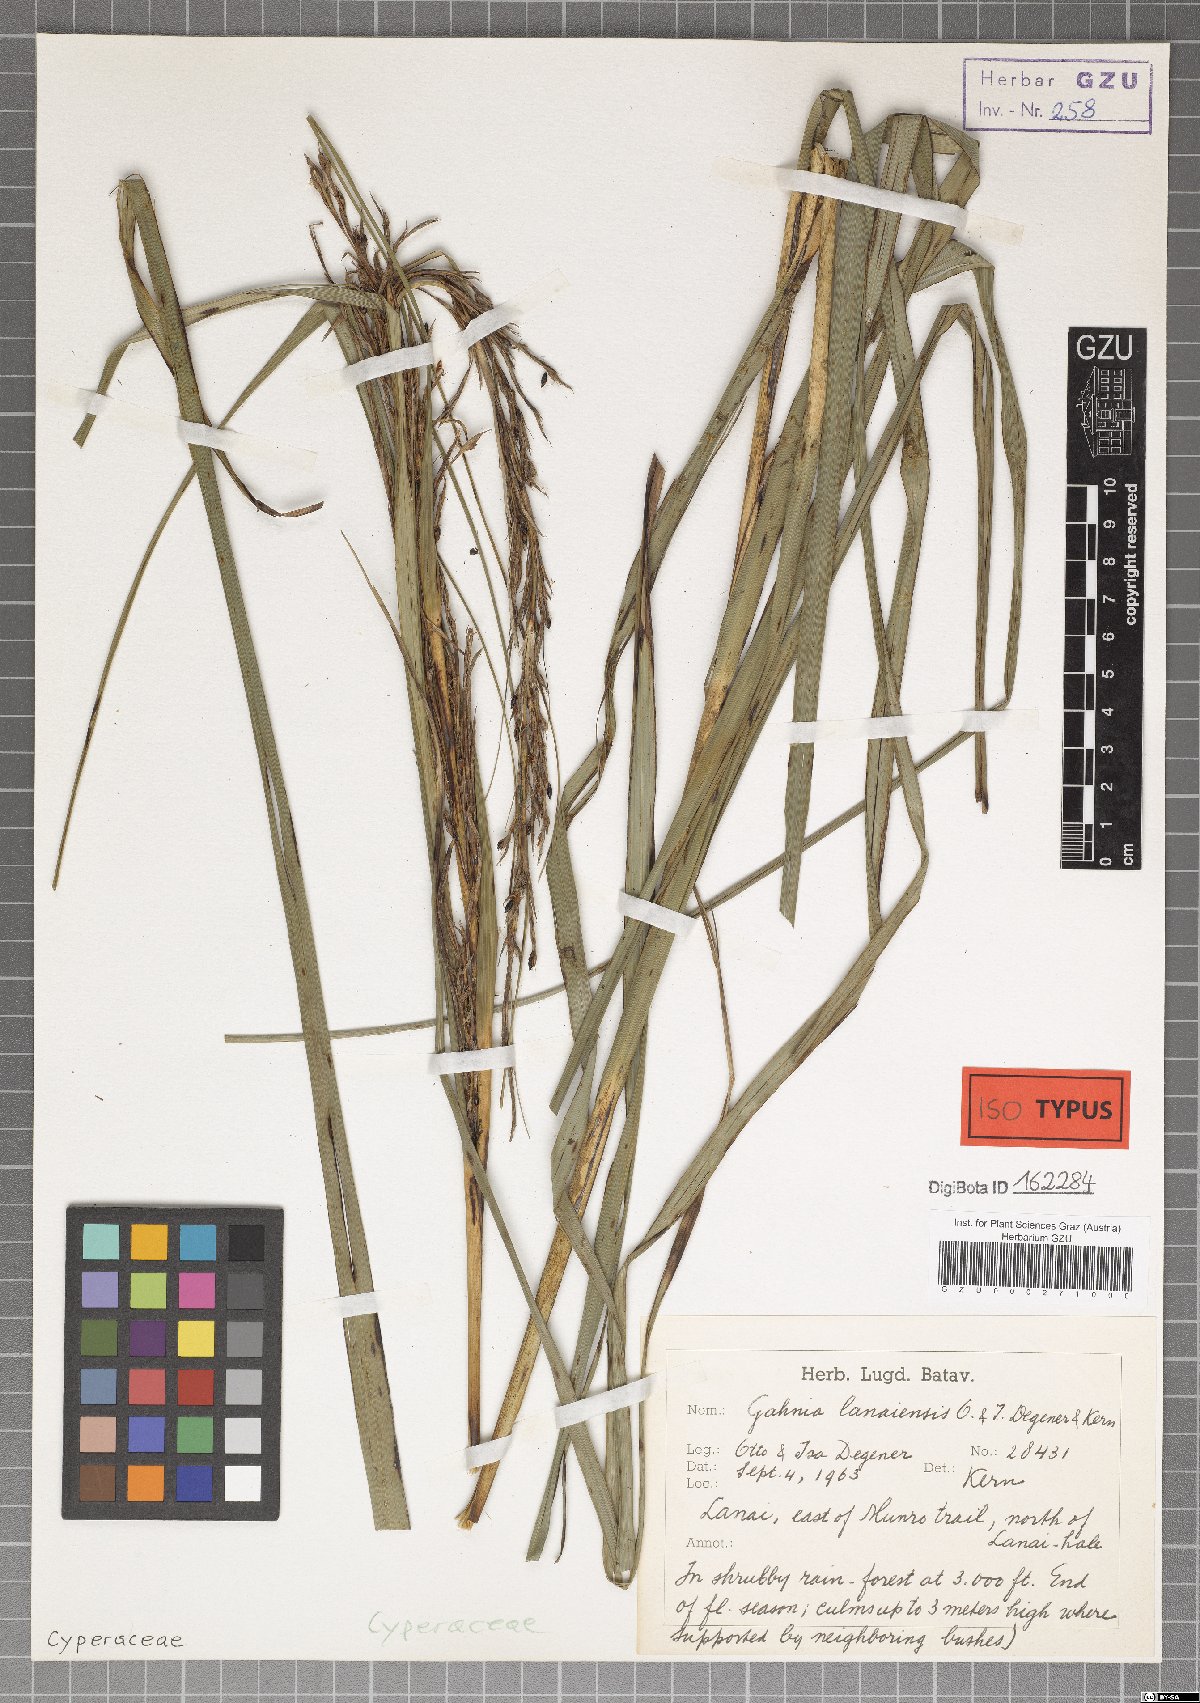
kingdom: Plantae
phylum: Tracheophyta
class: Liliopsida
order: Poales
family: Cyperaceae
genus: Gahnia
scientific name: Gahnia lacera
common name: Sawsedge
